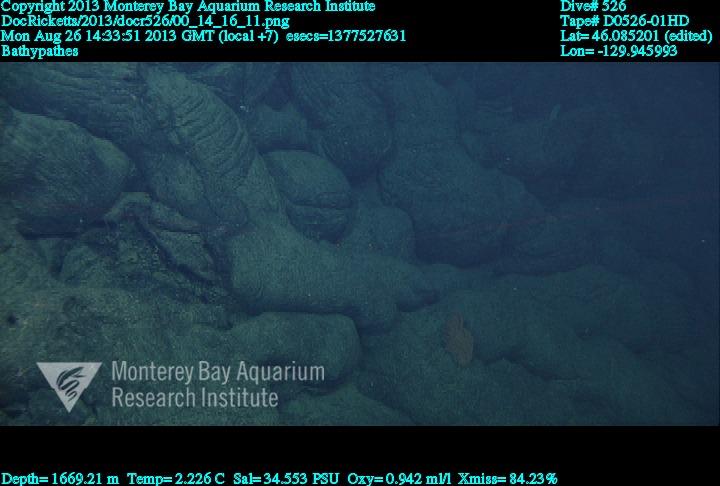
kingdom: Animalia
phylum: Cnidaria
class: Anthozoa
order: Antipatharia
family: Schizopathidae
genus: Bathypathes
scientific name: Bathypathes
